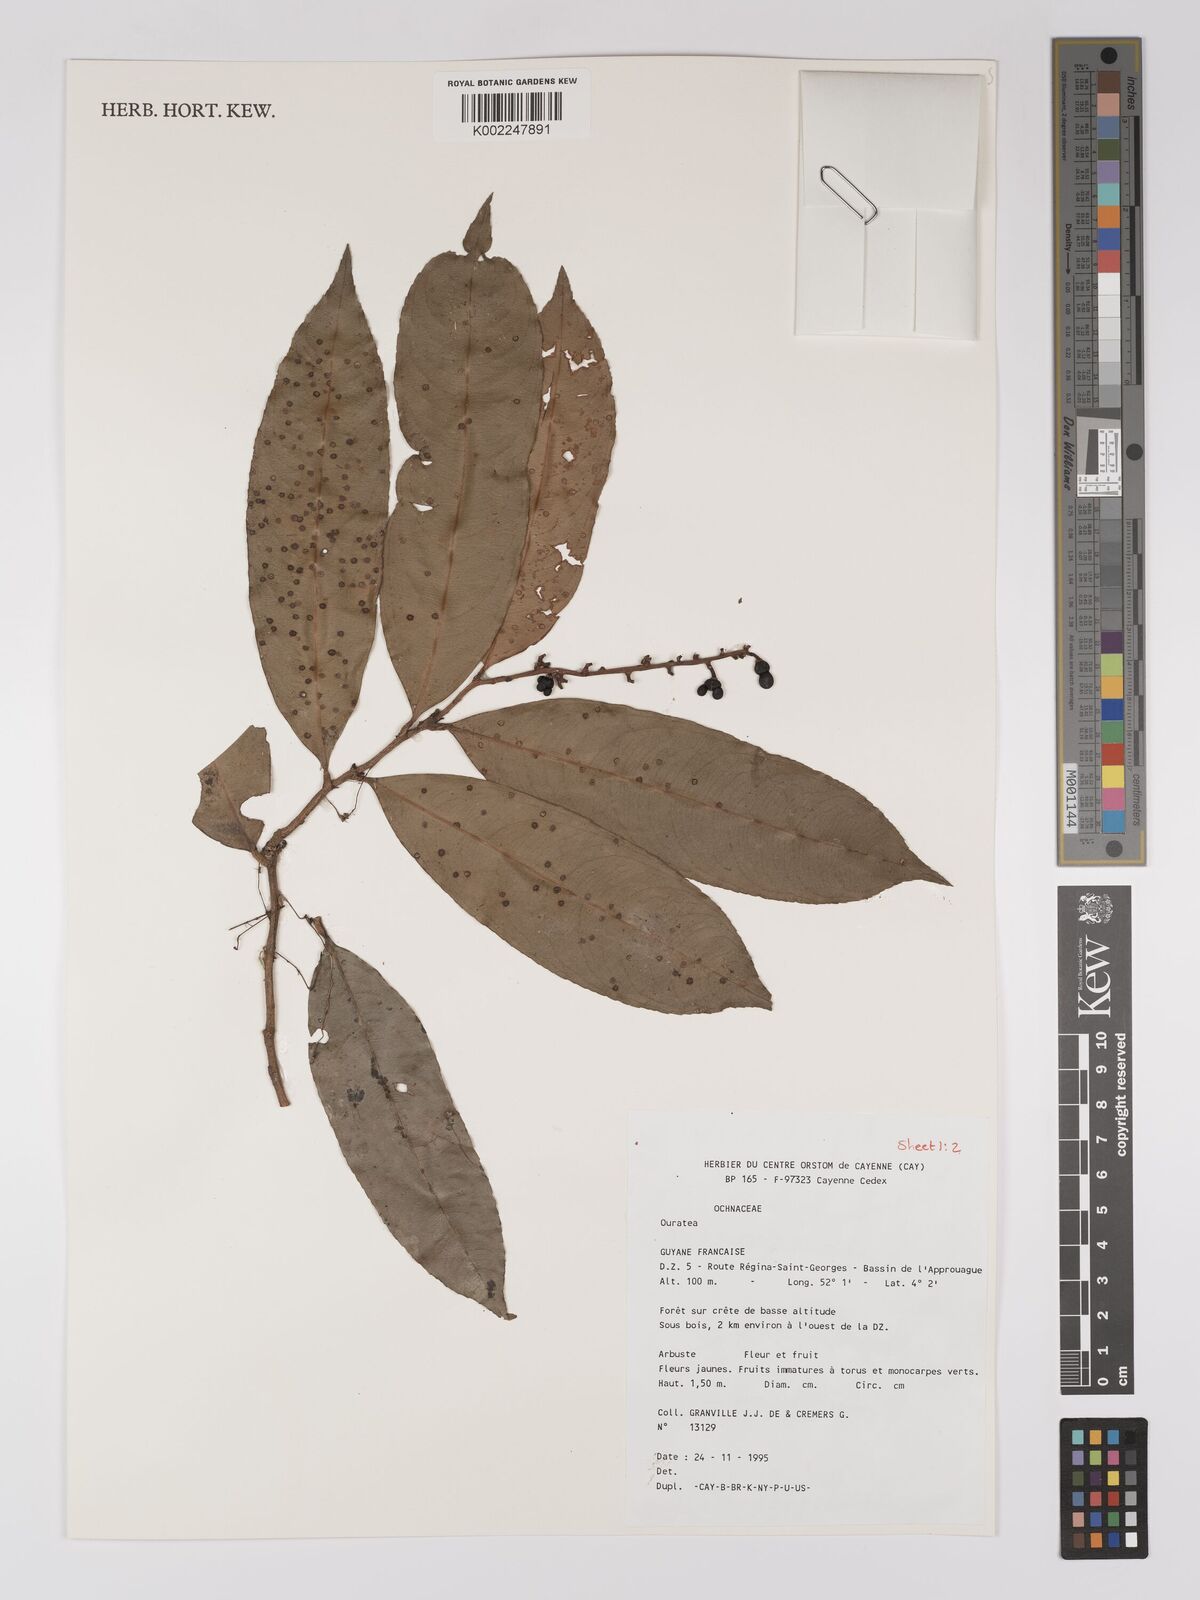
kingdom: Plantae
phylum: Tracheophyta
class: Magnoliopsida
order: Malpighiales
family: Ochnaceae
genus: Ouratea
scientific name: Ouratea
